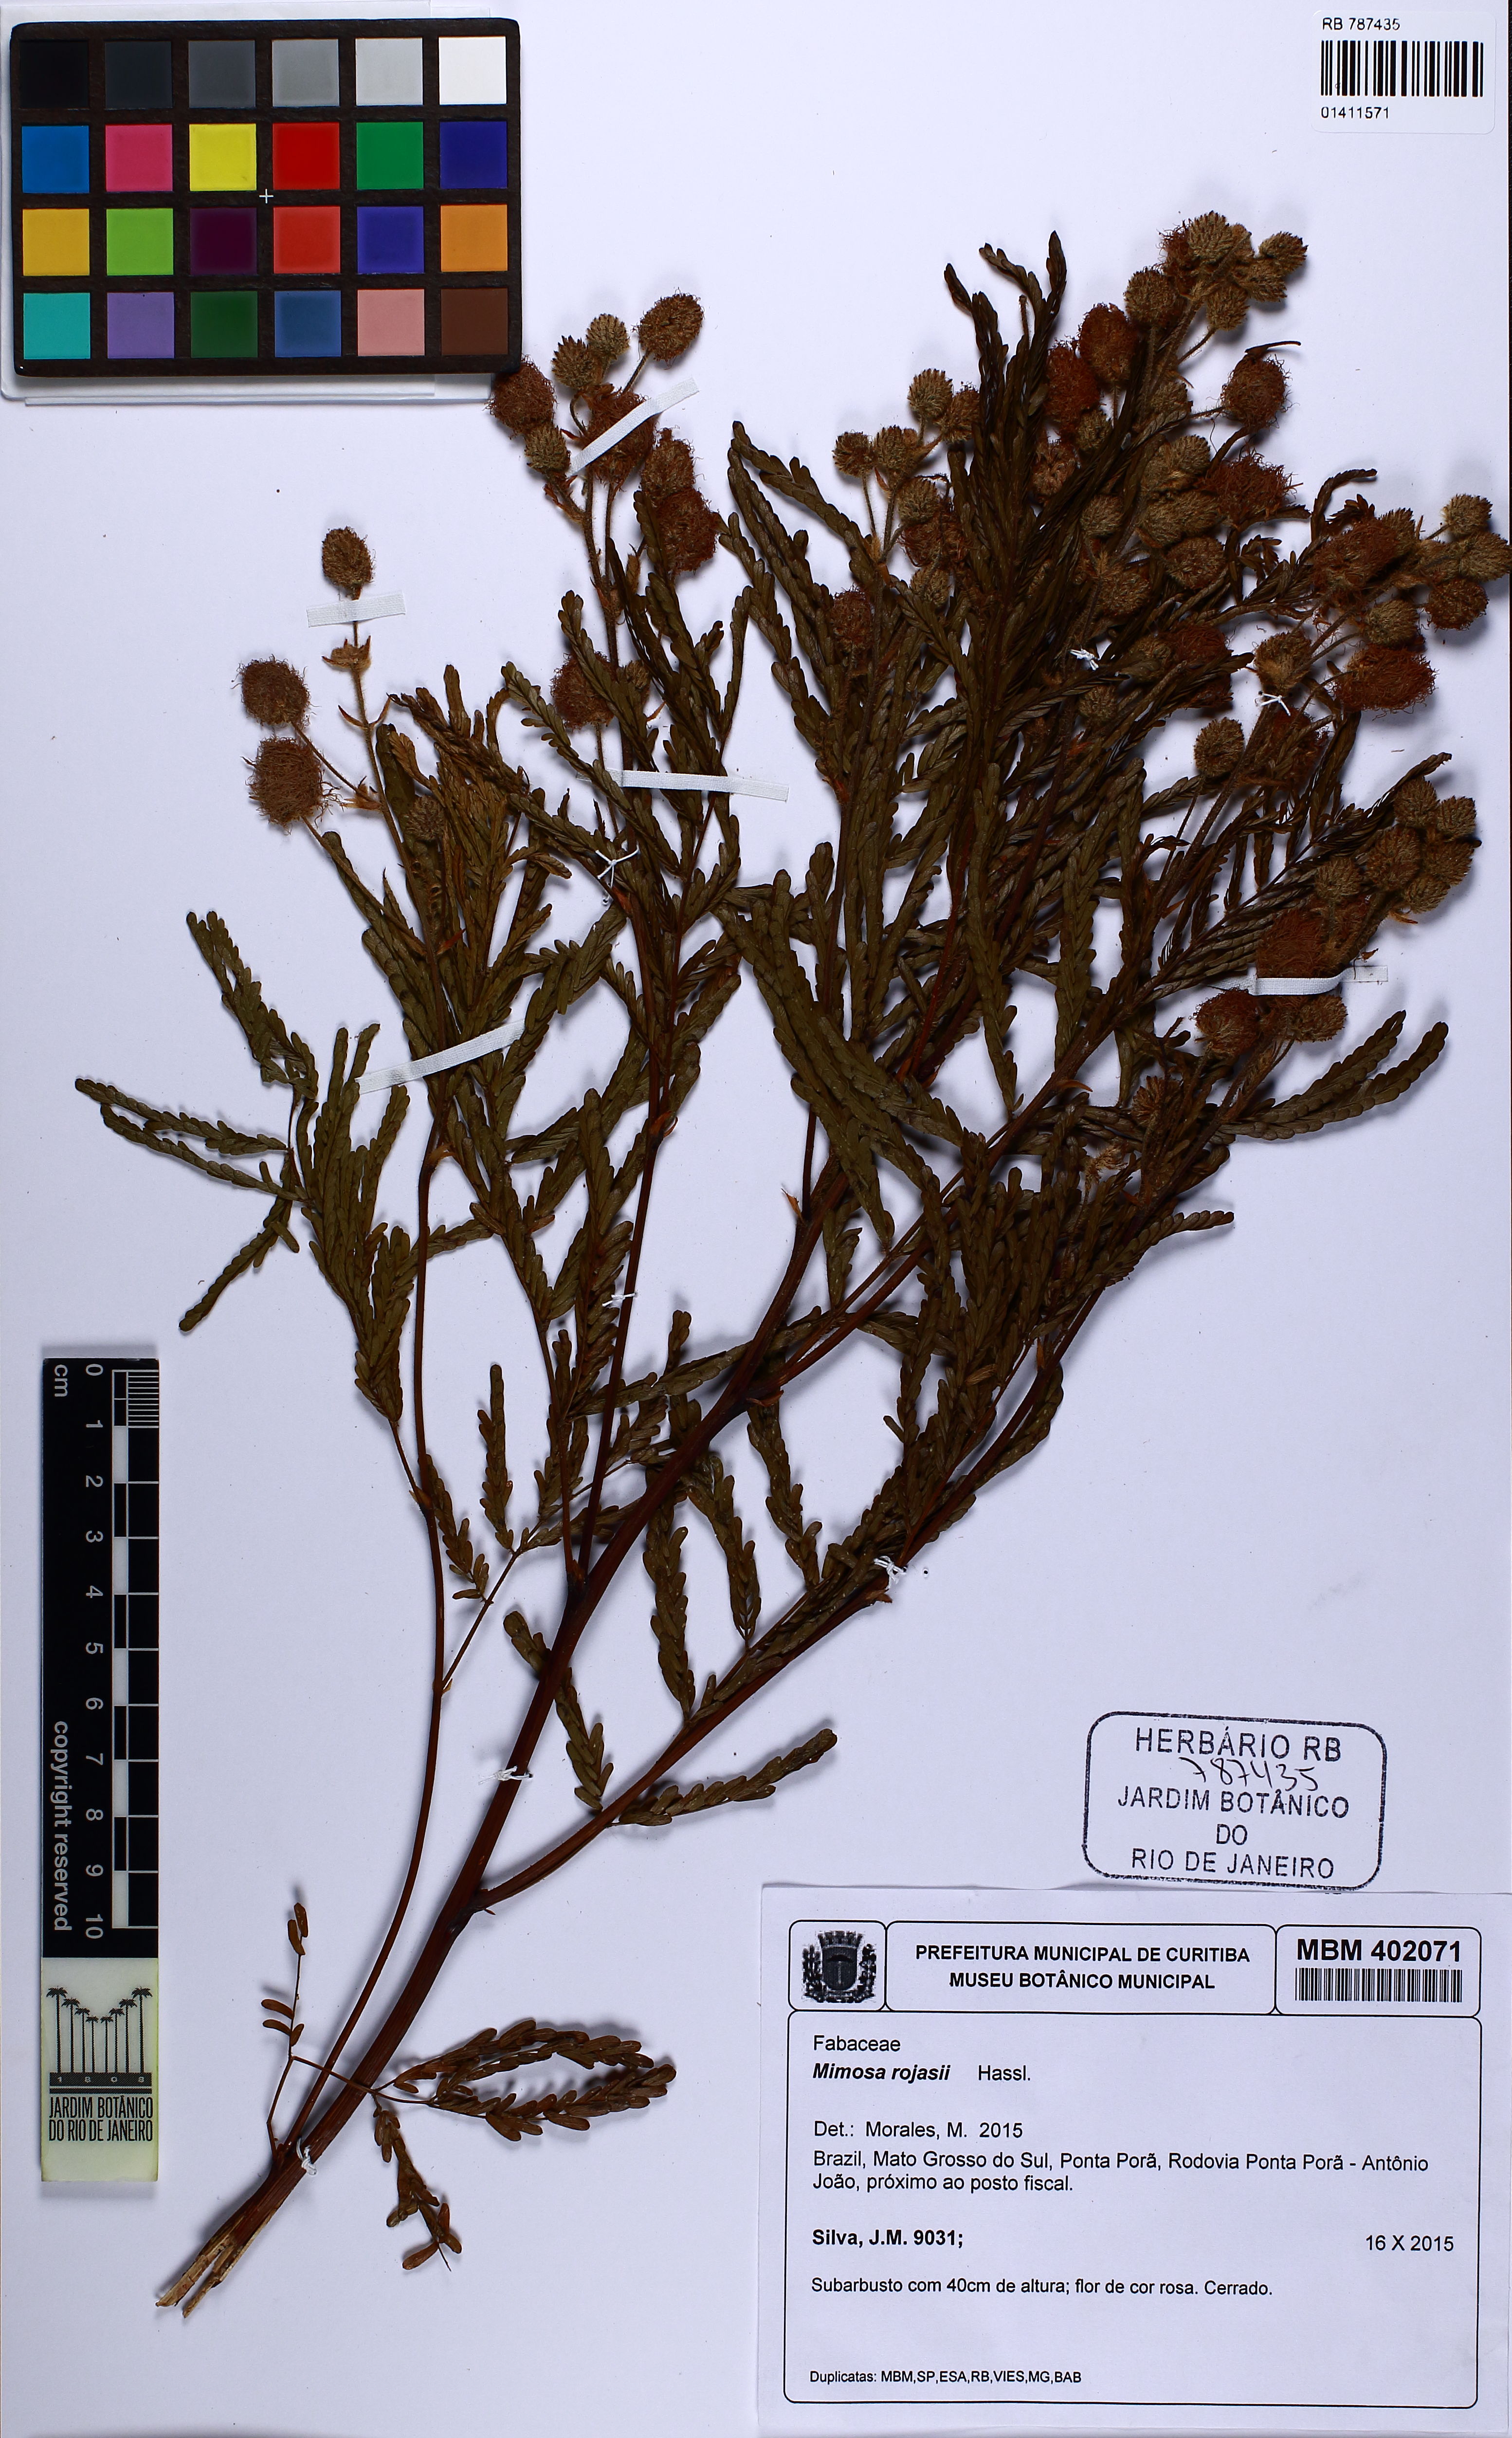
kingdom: Plantae
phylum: Tracheophyta
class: Magnoliopsida
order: Fabales
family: Fabaceae
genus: Mimosa
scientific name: Mimosa rojasii
